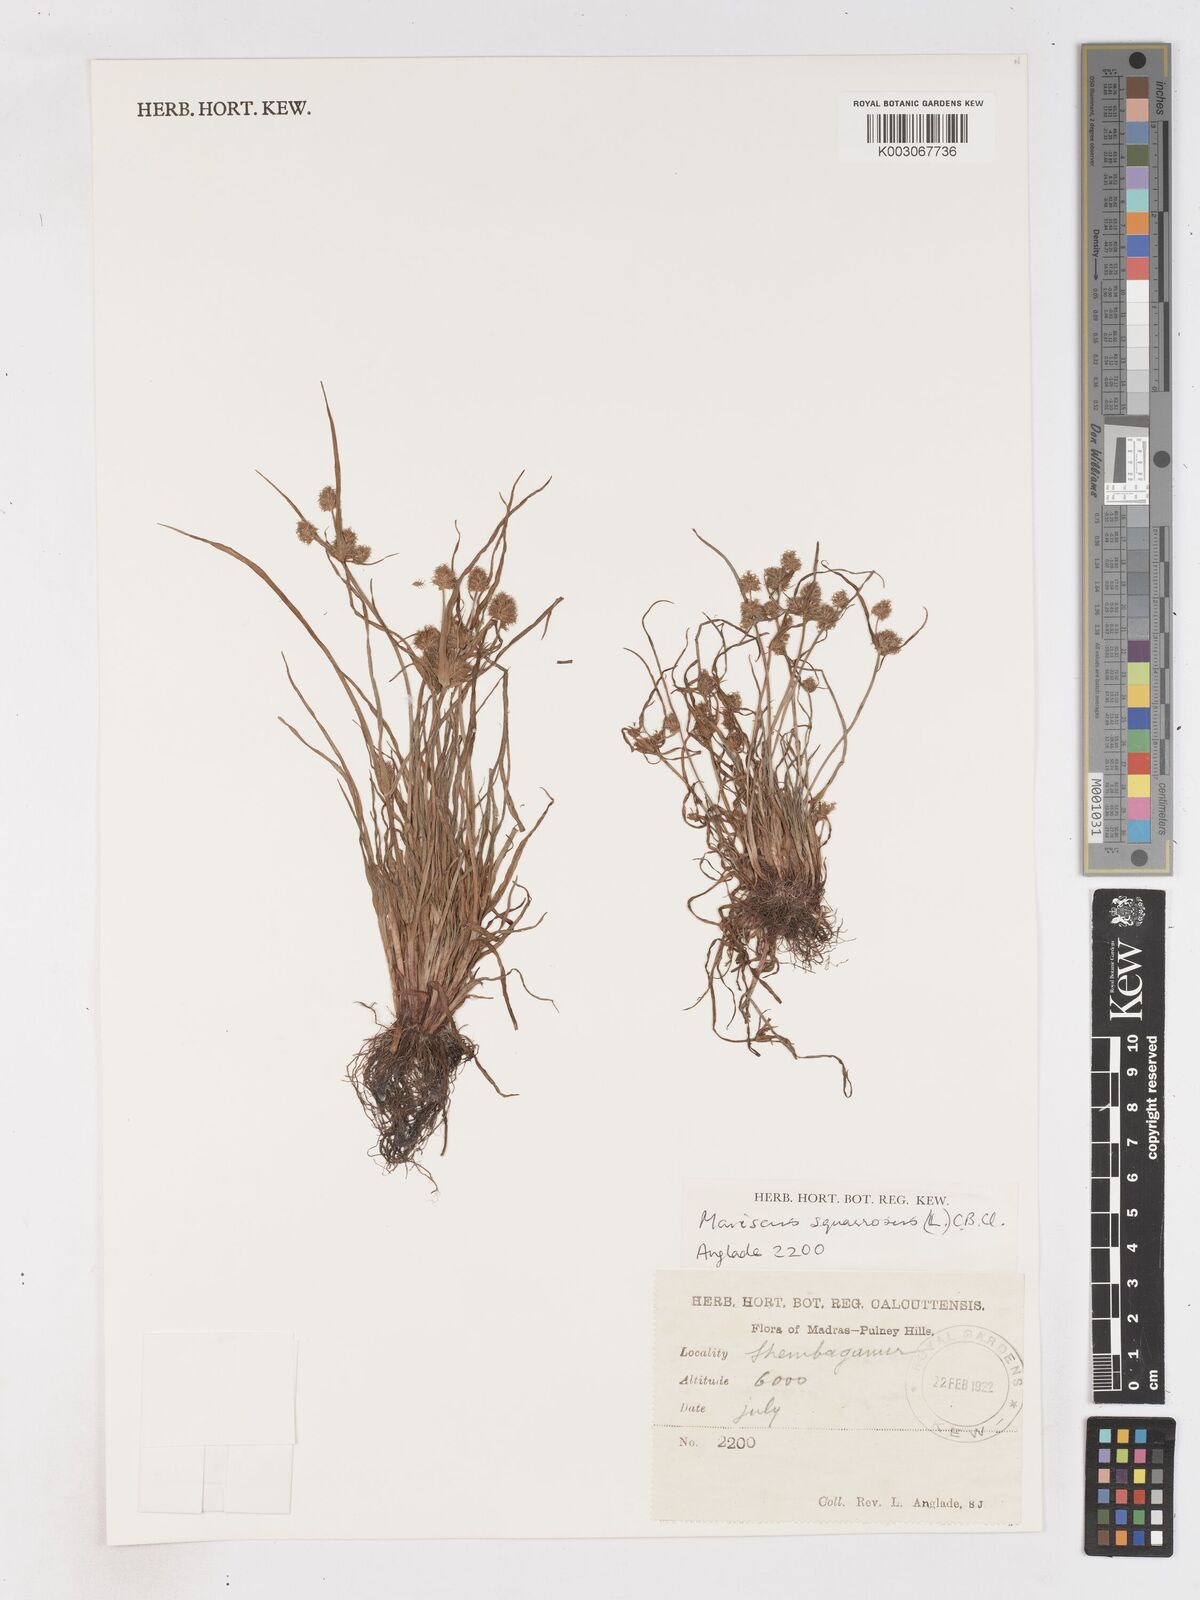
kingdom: Plantae
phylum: Tracheophyta
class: Liliopsida
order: Poales
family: Cyperaceae
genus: Cyperus
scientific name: Cyperus squarrosus
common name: Awned cyperus
